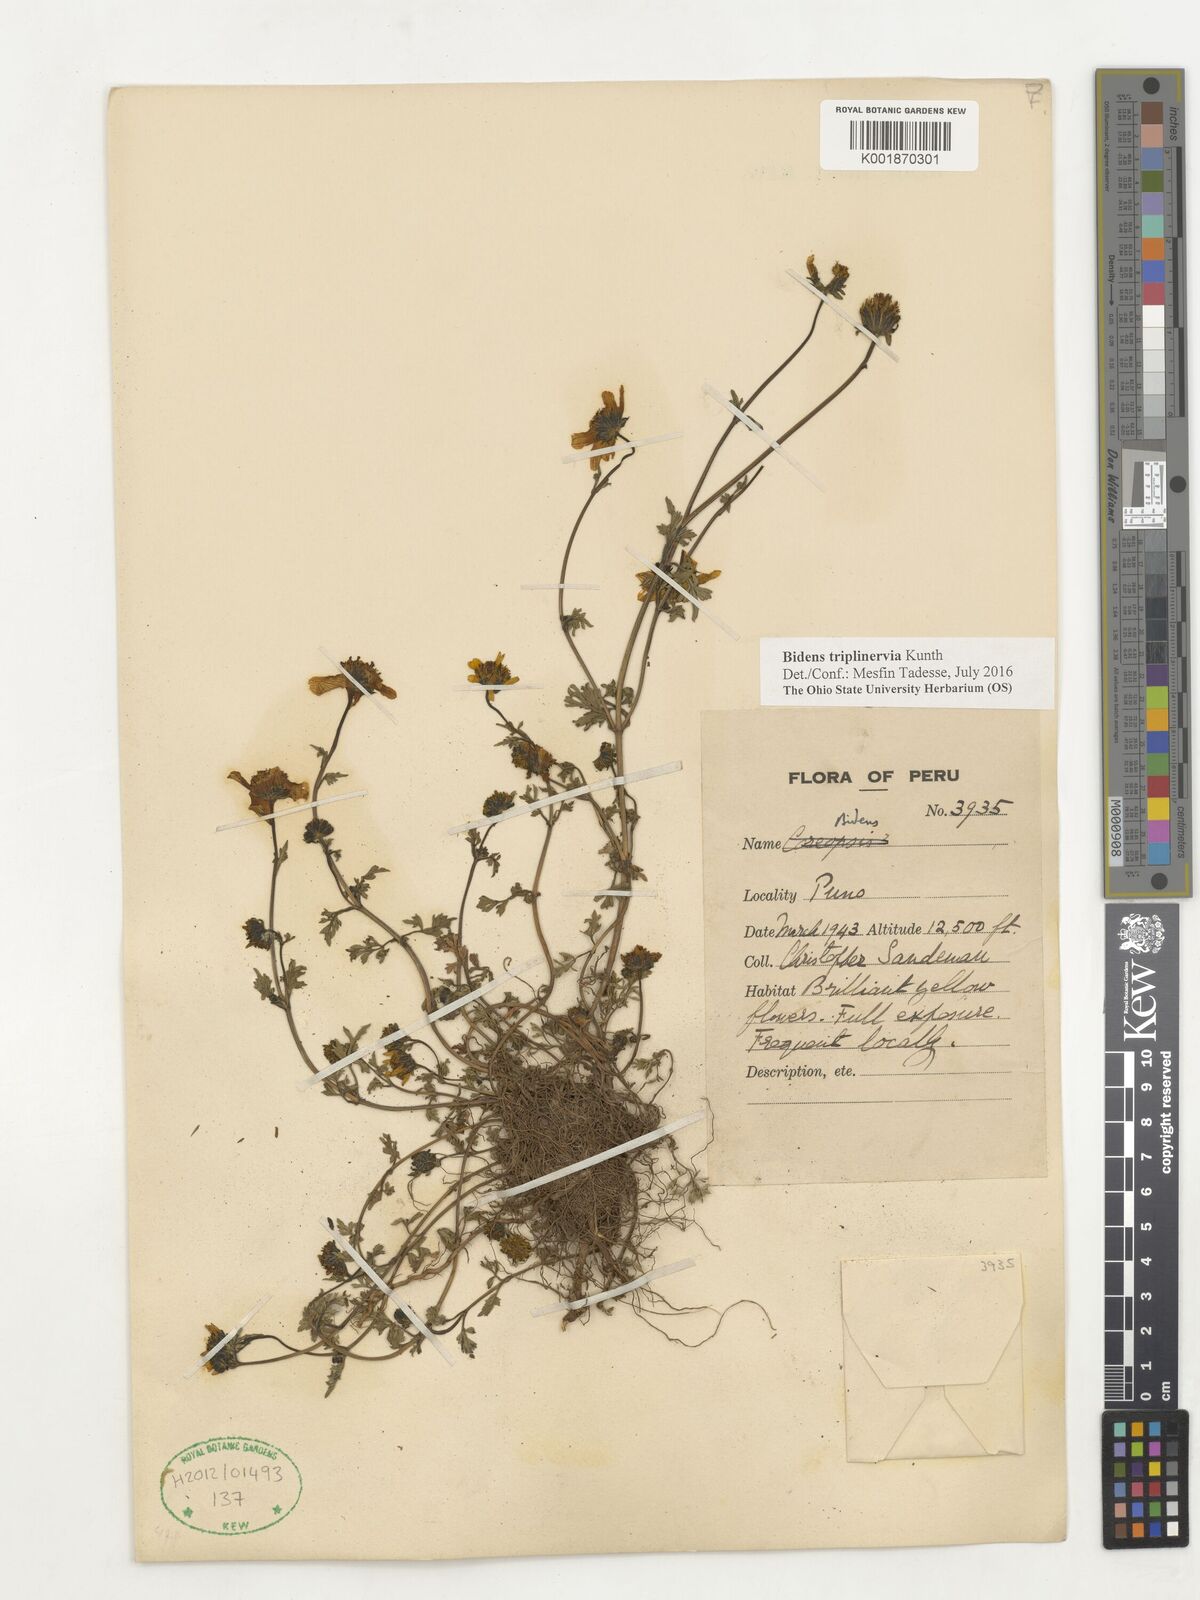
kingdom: Plantae
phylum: Tracheophyta
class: Magnoliopsida
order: Asterales
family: Asteraceae
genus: Bidens
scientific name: Bidens triplinervia
